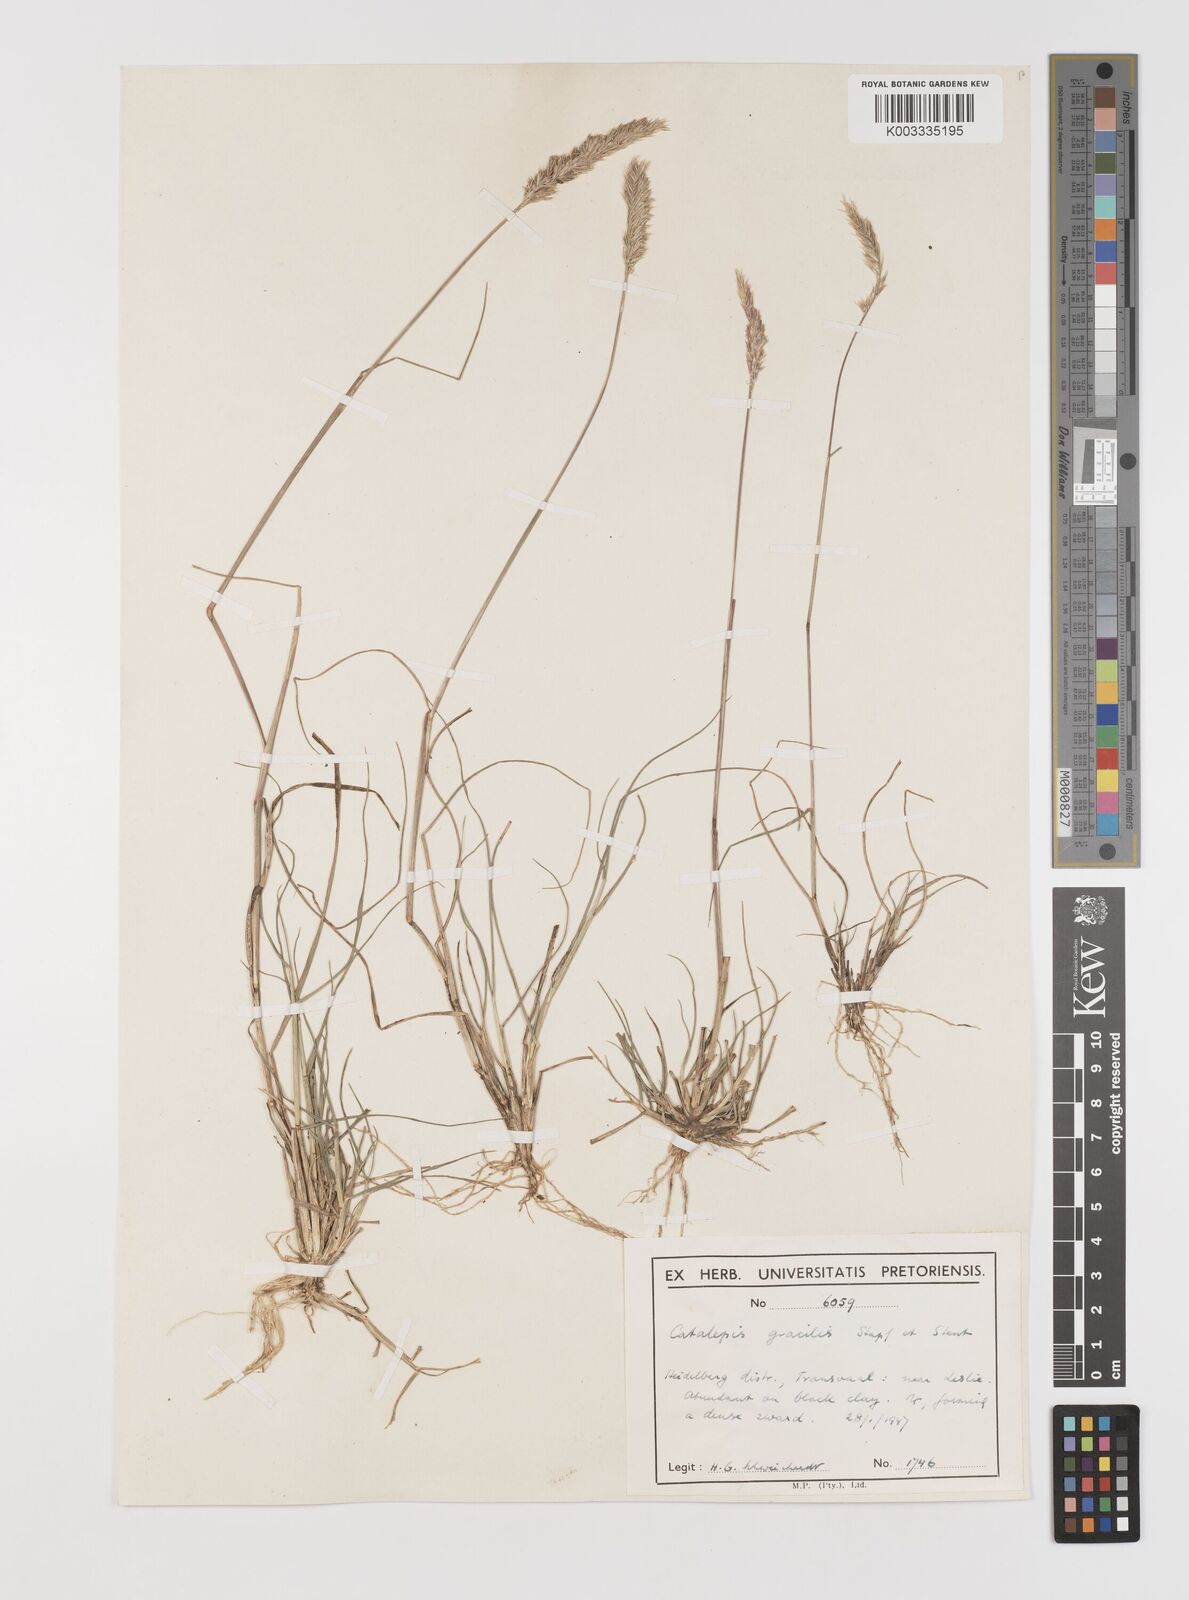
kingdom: Plantae
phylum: Tracheophyta
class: Liliopsida
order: Poales
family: Poaceae
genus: Catalepis
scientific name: Catalepis gracilis
